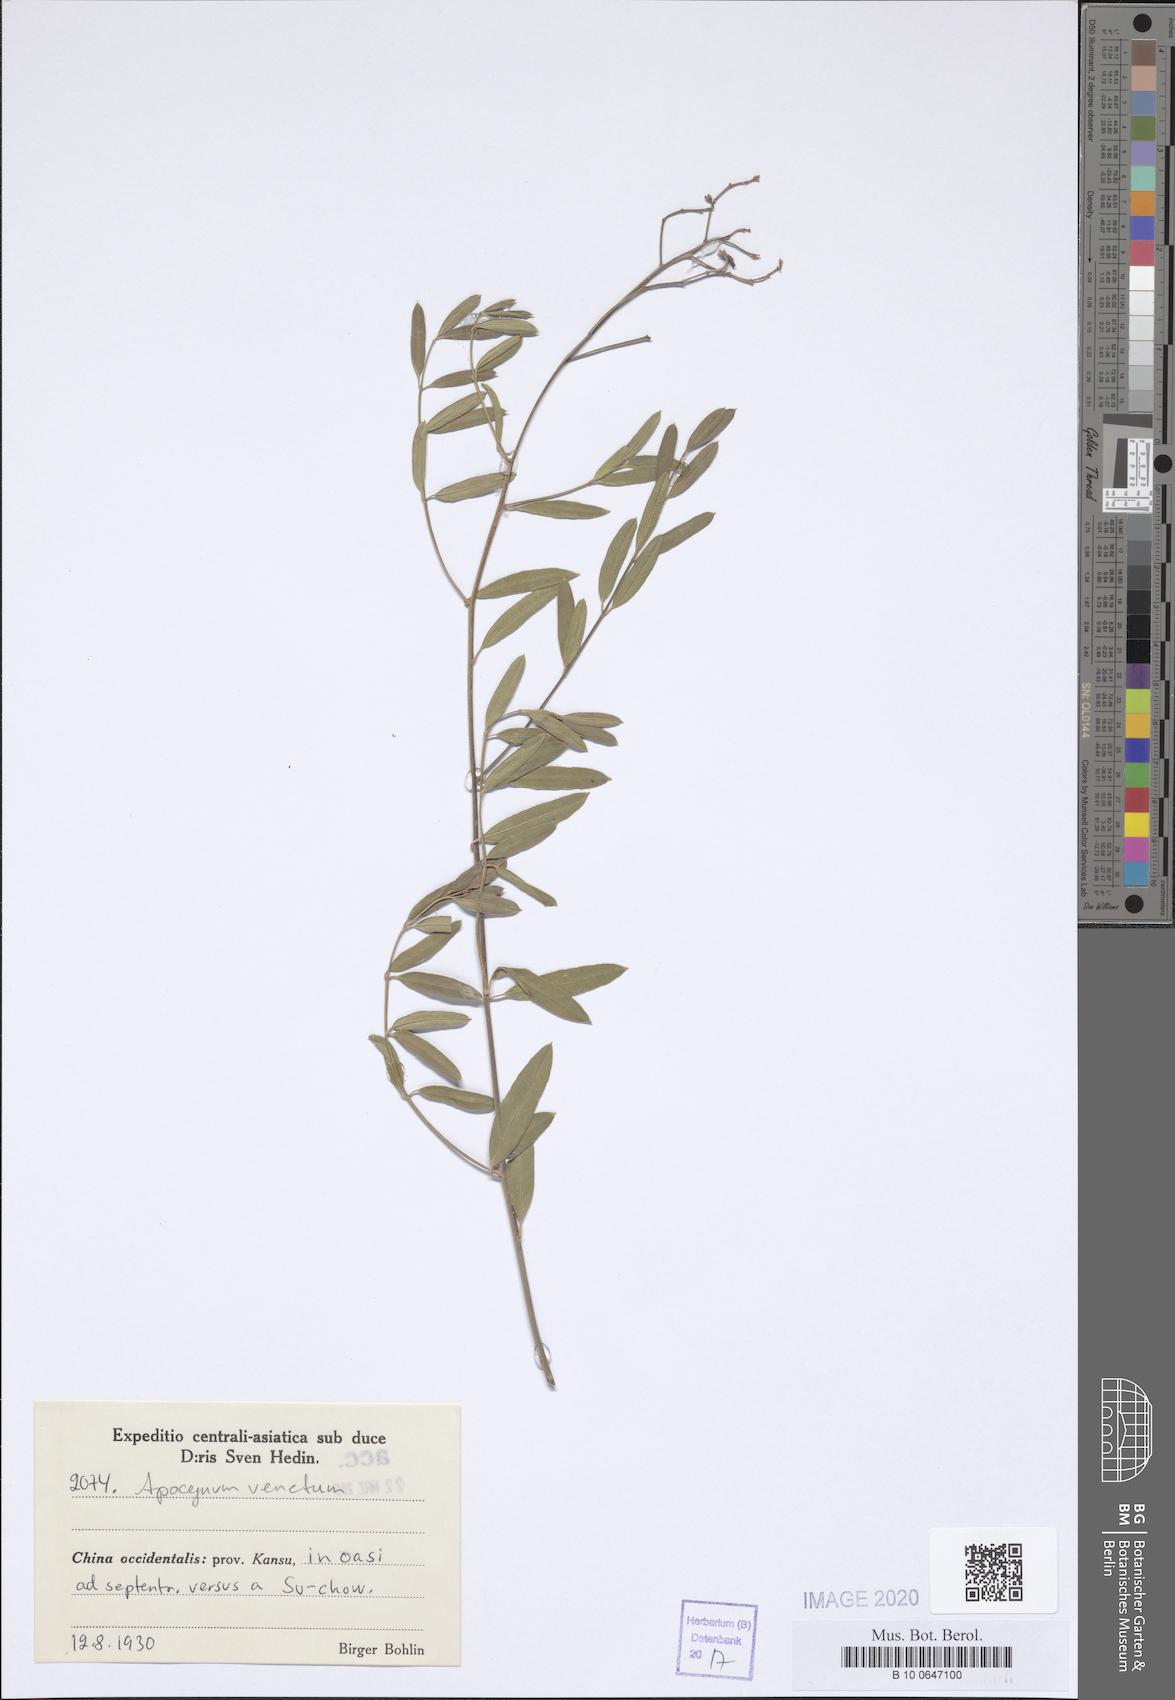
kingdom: Plantae
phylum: Tracheophyta
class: Magnoliopsida
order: Gentianales
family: Apocynaceae
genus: Poacynum
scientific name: Poacynum venetum
